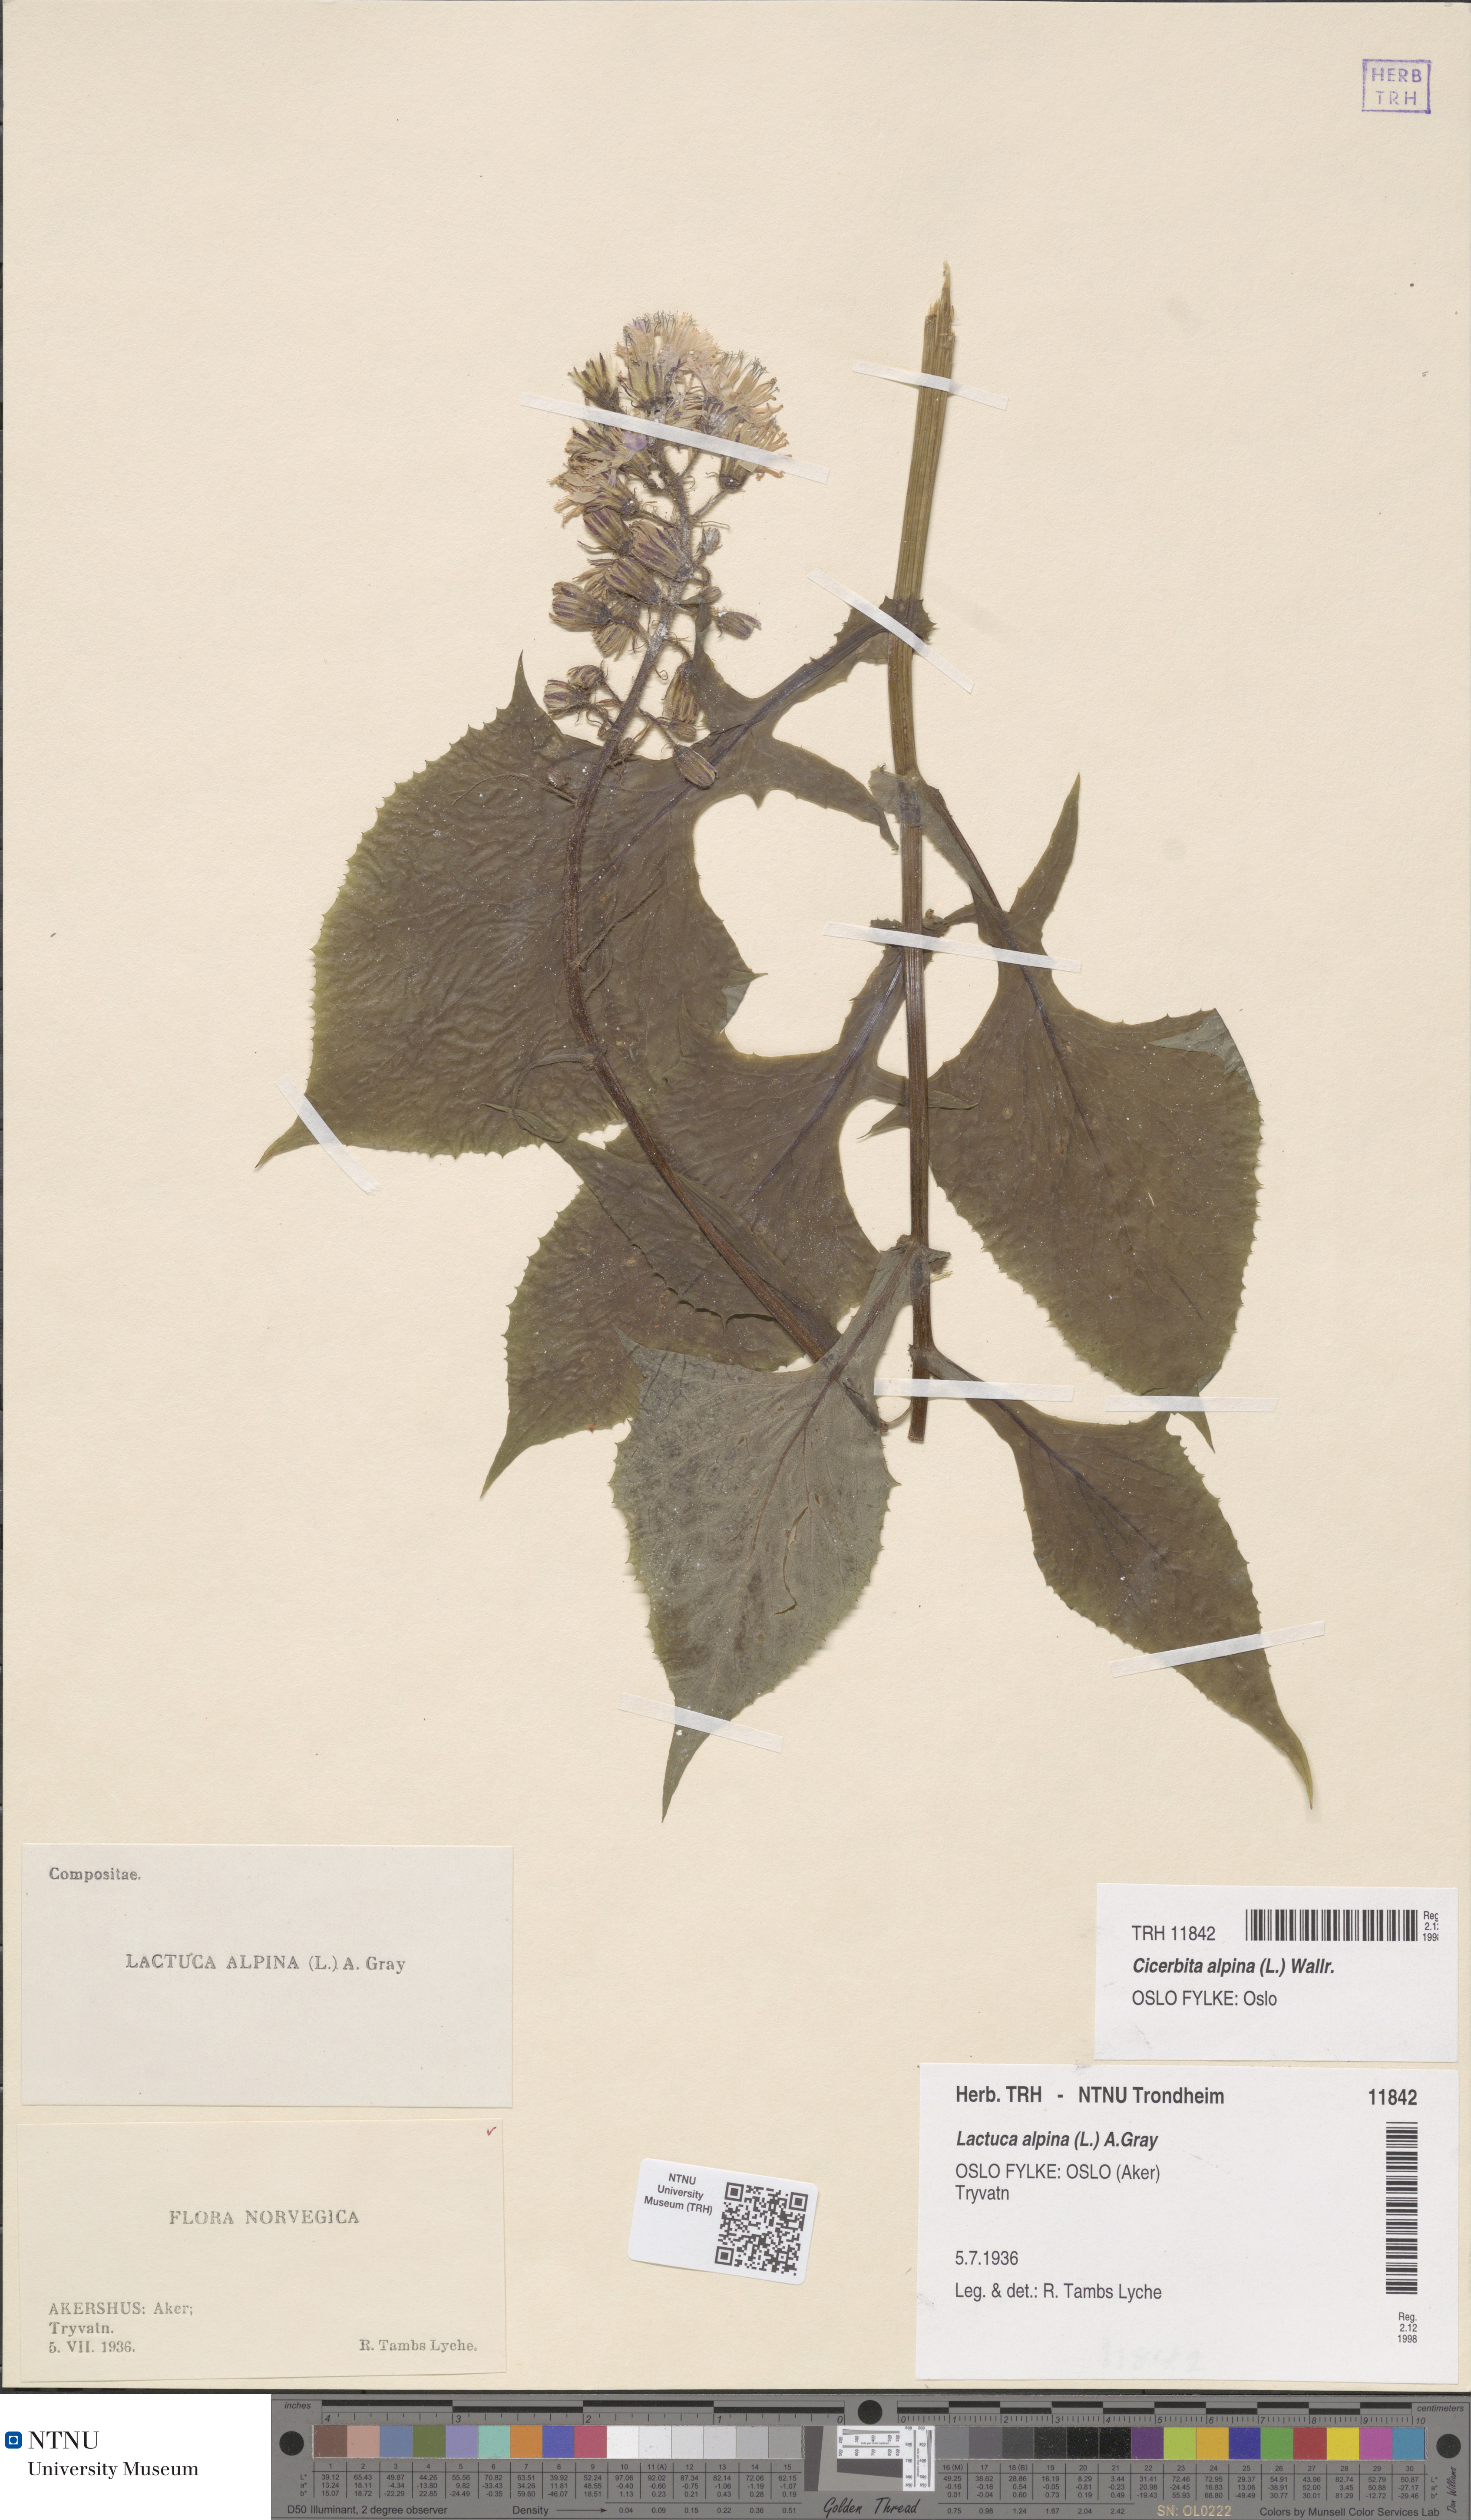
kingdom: Plantae
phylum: Tracheophyta
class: Magnoliopsida
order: Asterales
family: Asteraceae
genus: Cicerbita
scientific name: Cicerbita alpina
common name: Alpine blue-sow-thistle
